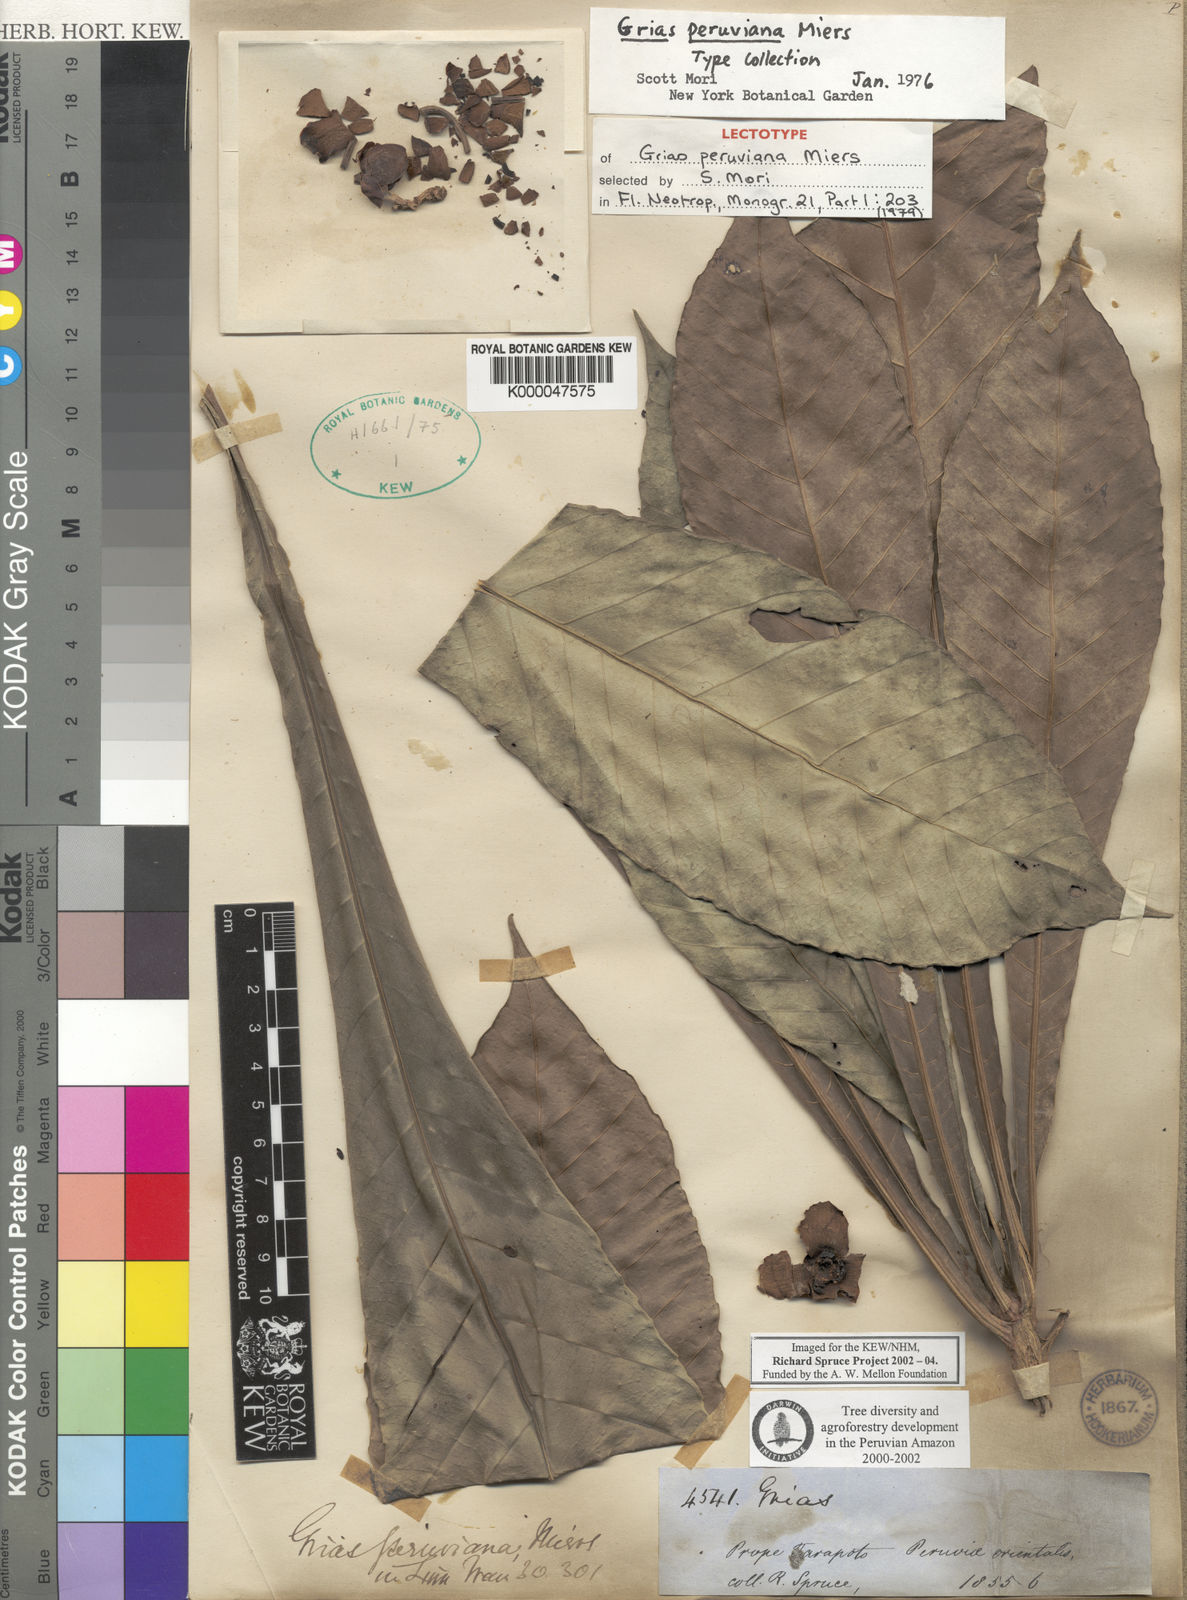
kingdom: Plantae
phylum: Tracheophyta
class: Magnoliopsida
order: Ericales
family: Lecythidaceae
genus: Grias
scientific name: Grias peruviana
